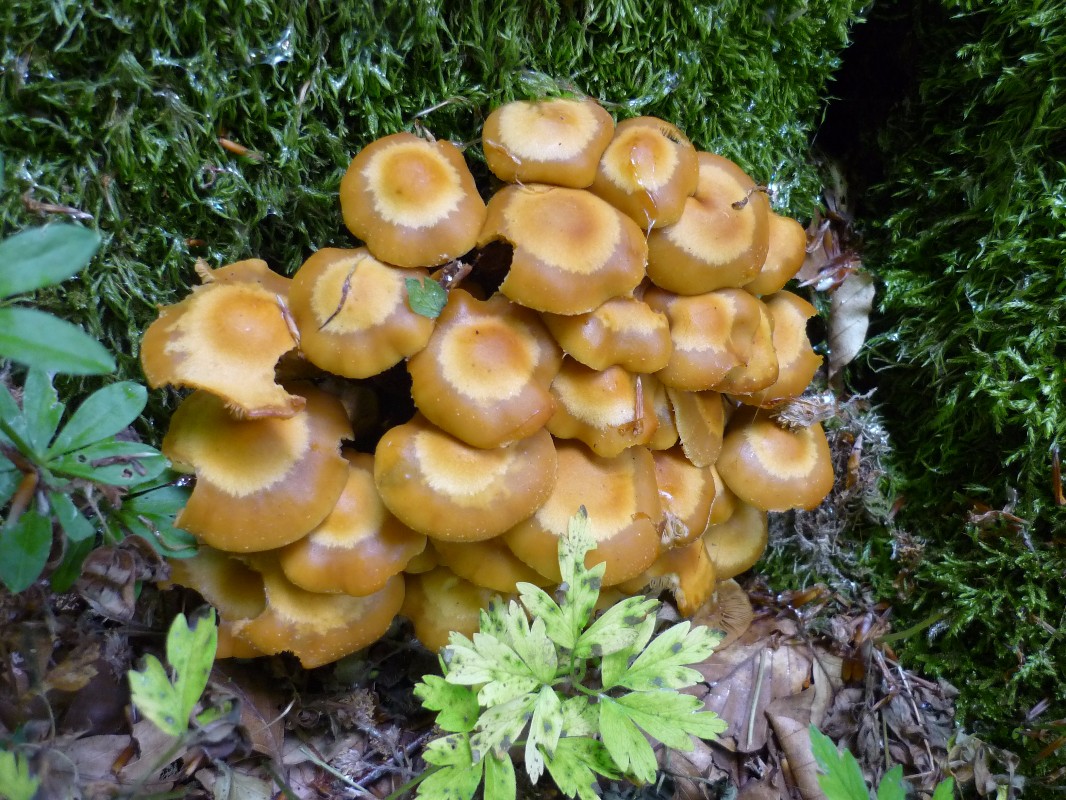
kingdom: Fungi
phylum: Basidiomycota
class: Agaricomycetes
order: Agaricales
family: Strophariaceae
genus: Kuehneromyces
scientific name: Kuehneromyces mutabilis
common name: foranderlig skælhat
